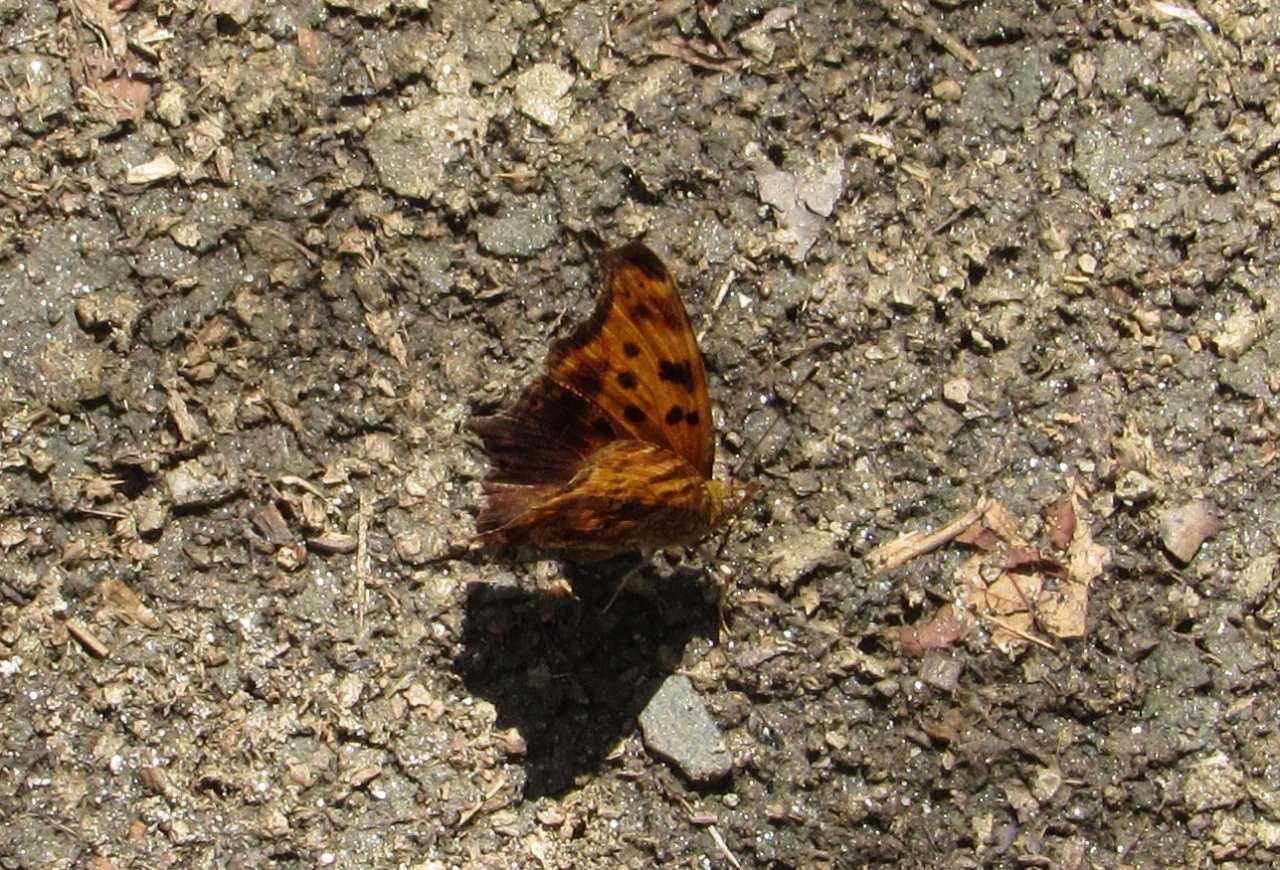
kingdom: Animalia
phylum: Arthropoda
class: Insecta
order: Lepidoptera
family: Nymphalidae
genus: Polygonia
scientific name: Polygonia comma
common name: Eastern Comma
